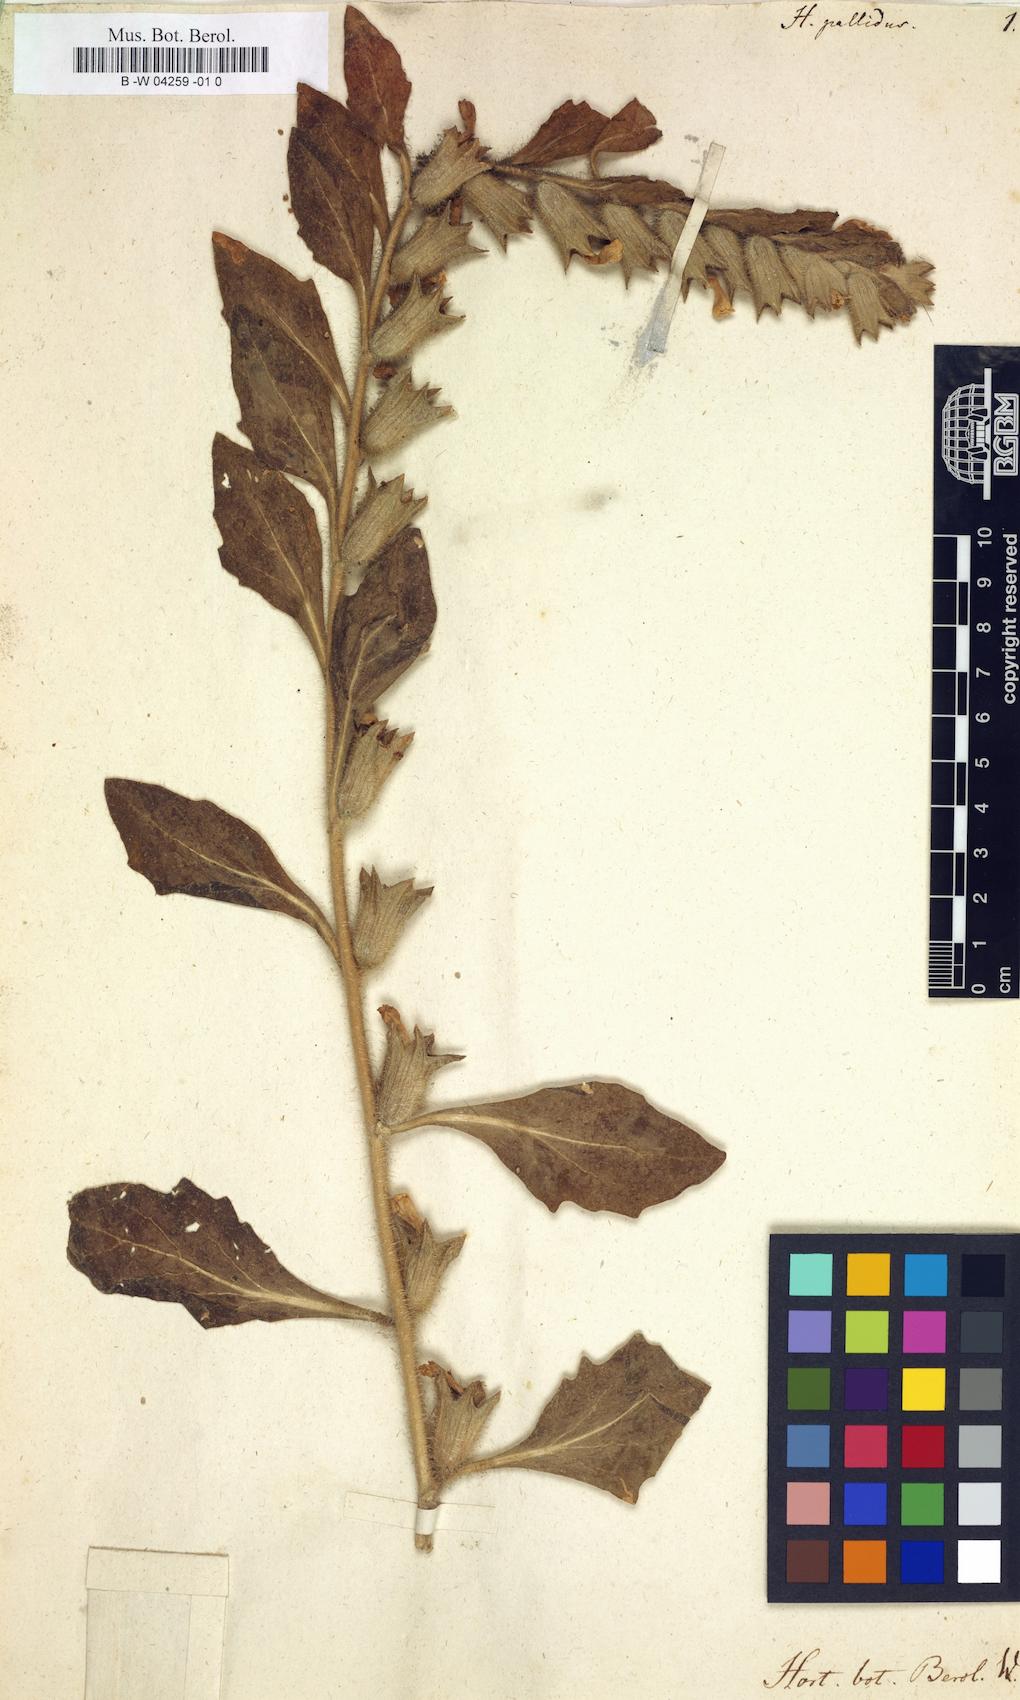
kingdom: Plantae
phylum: Tracheophyta
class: Magnoliopsida
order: Solanales
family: Solanaceae
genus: Hyoscyamus
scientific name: Hyoscyamus niger
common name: Henbane
